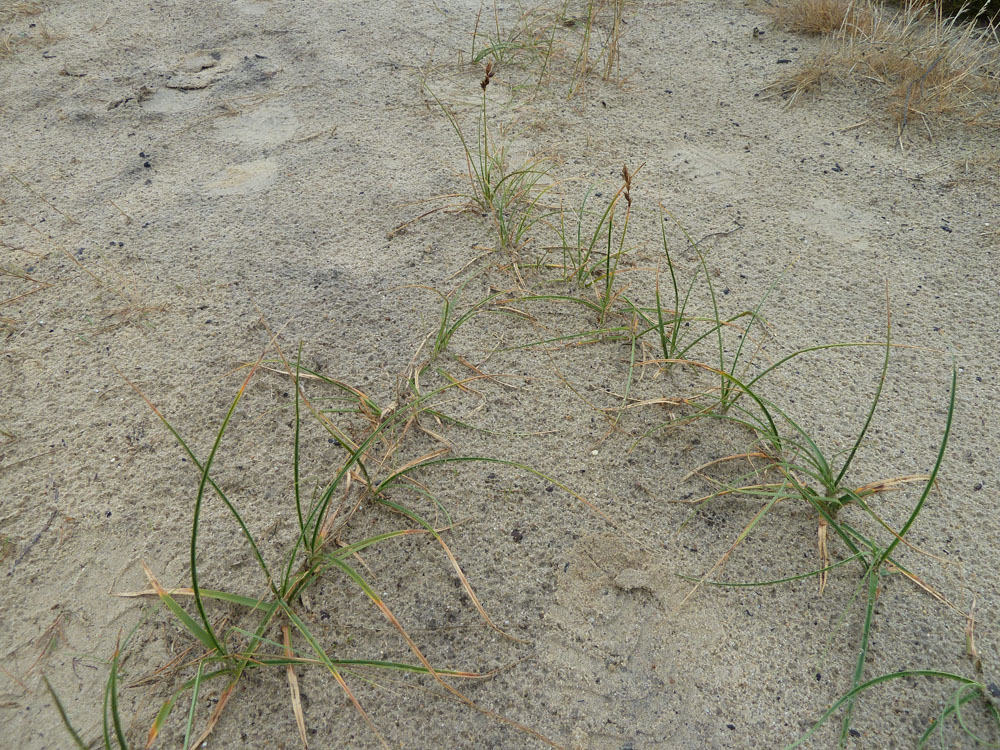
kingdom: Plantae
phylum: Tracheophyta
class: Liliopsida
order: Poales
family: Cyperaceae
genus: Carex
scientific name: Carex arenaria
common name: Sand sedge
